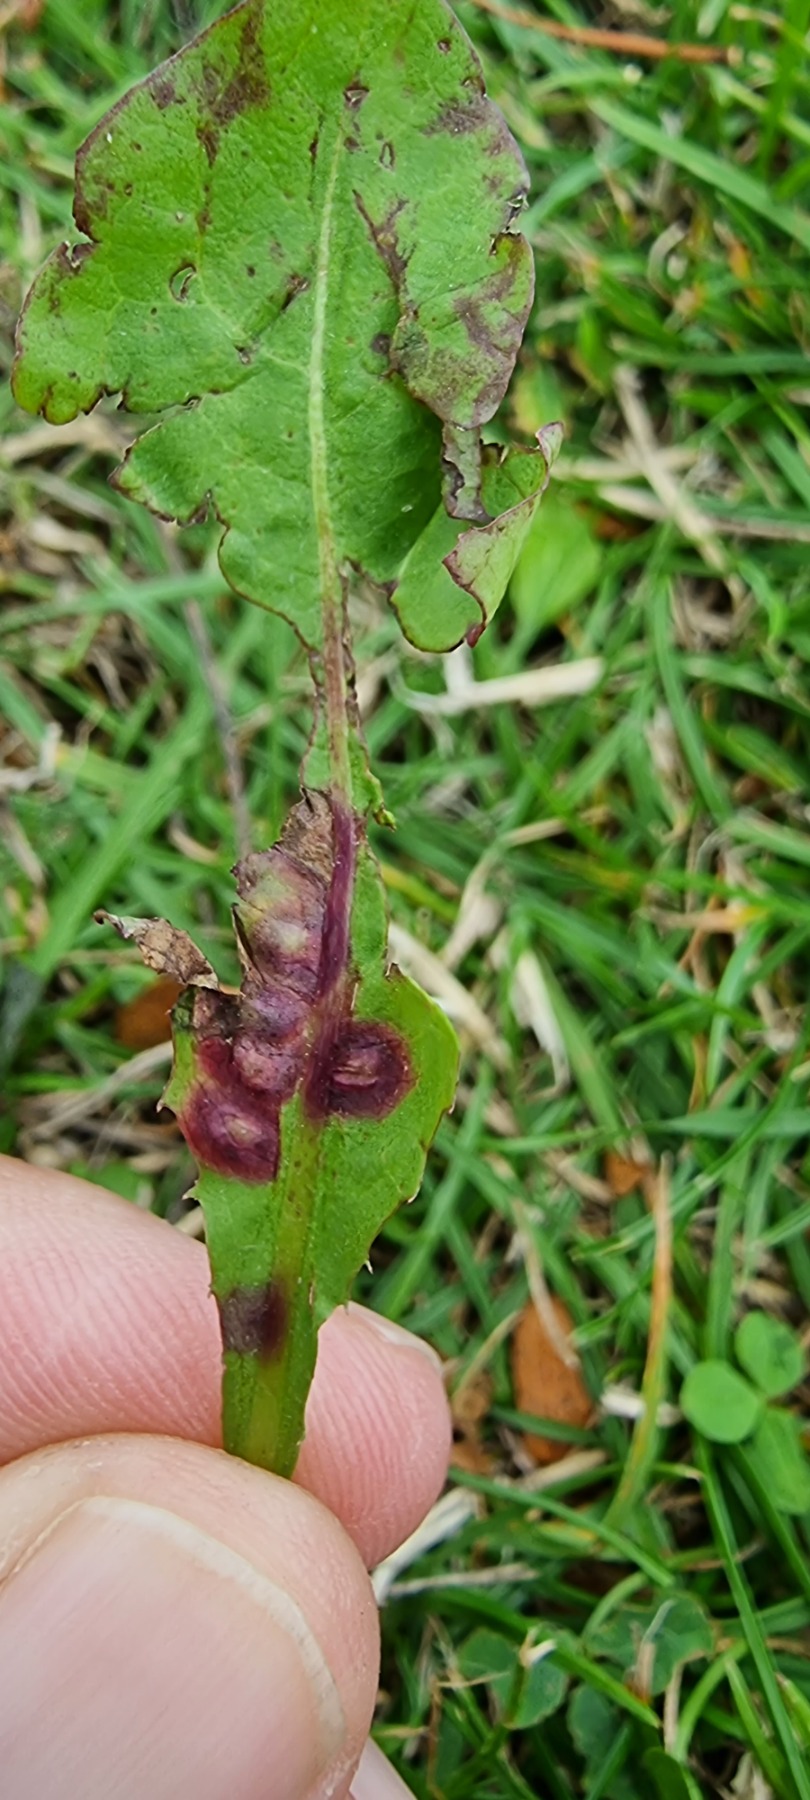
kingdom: Animalia
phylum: Arthropoda
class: Insecta
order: Diptera
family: Cecidomyiidae
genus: Cystiphora
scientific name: Cystiphora taraxaci
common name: Mælkebøttegalmyg
